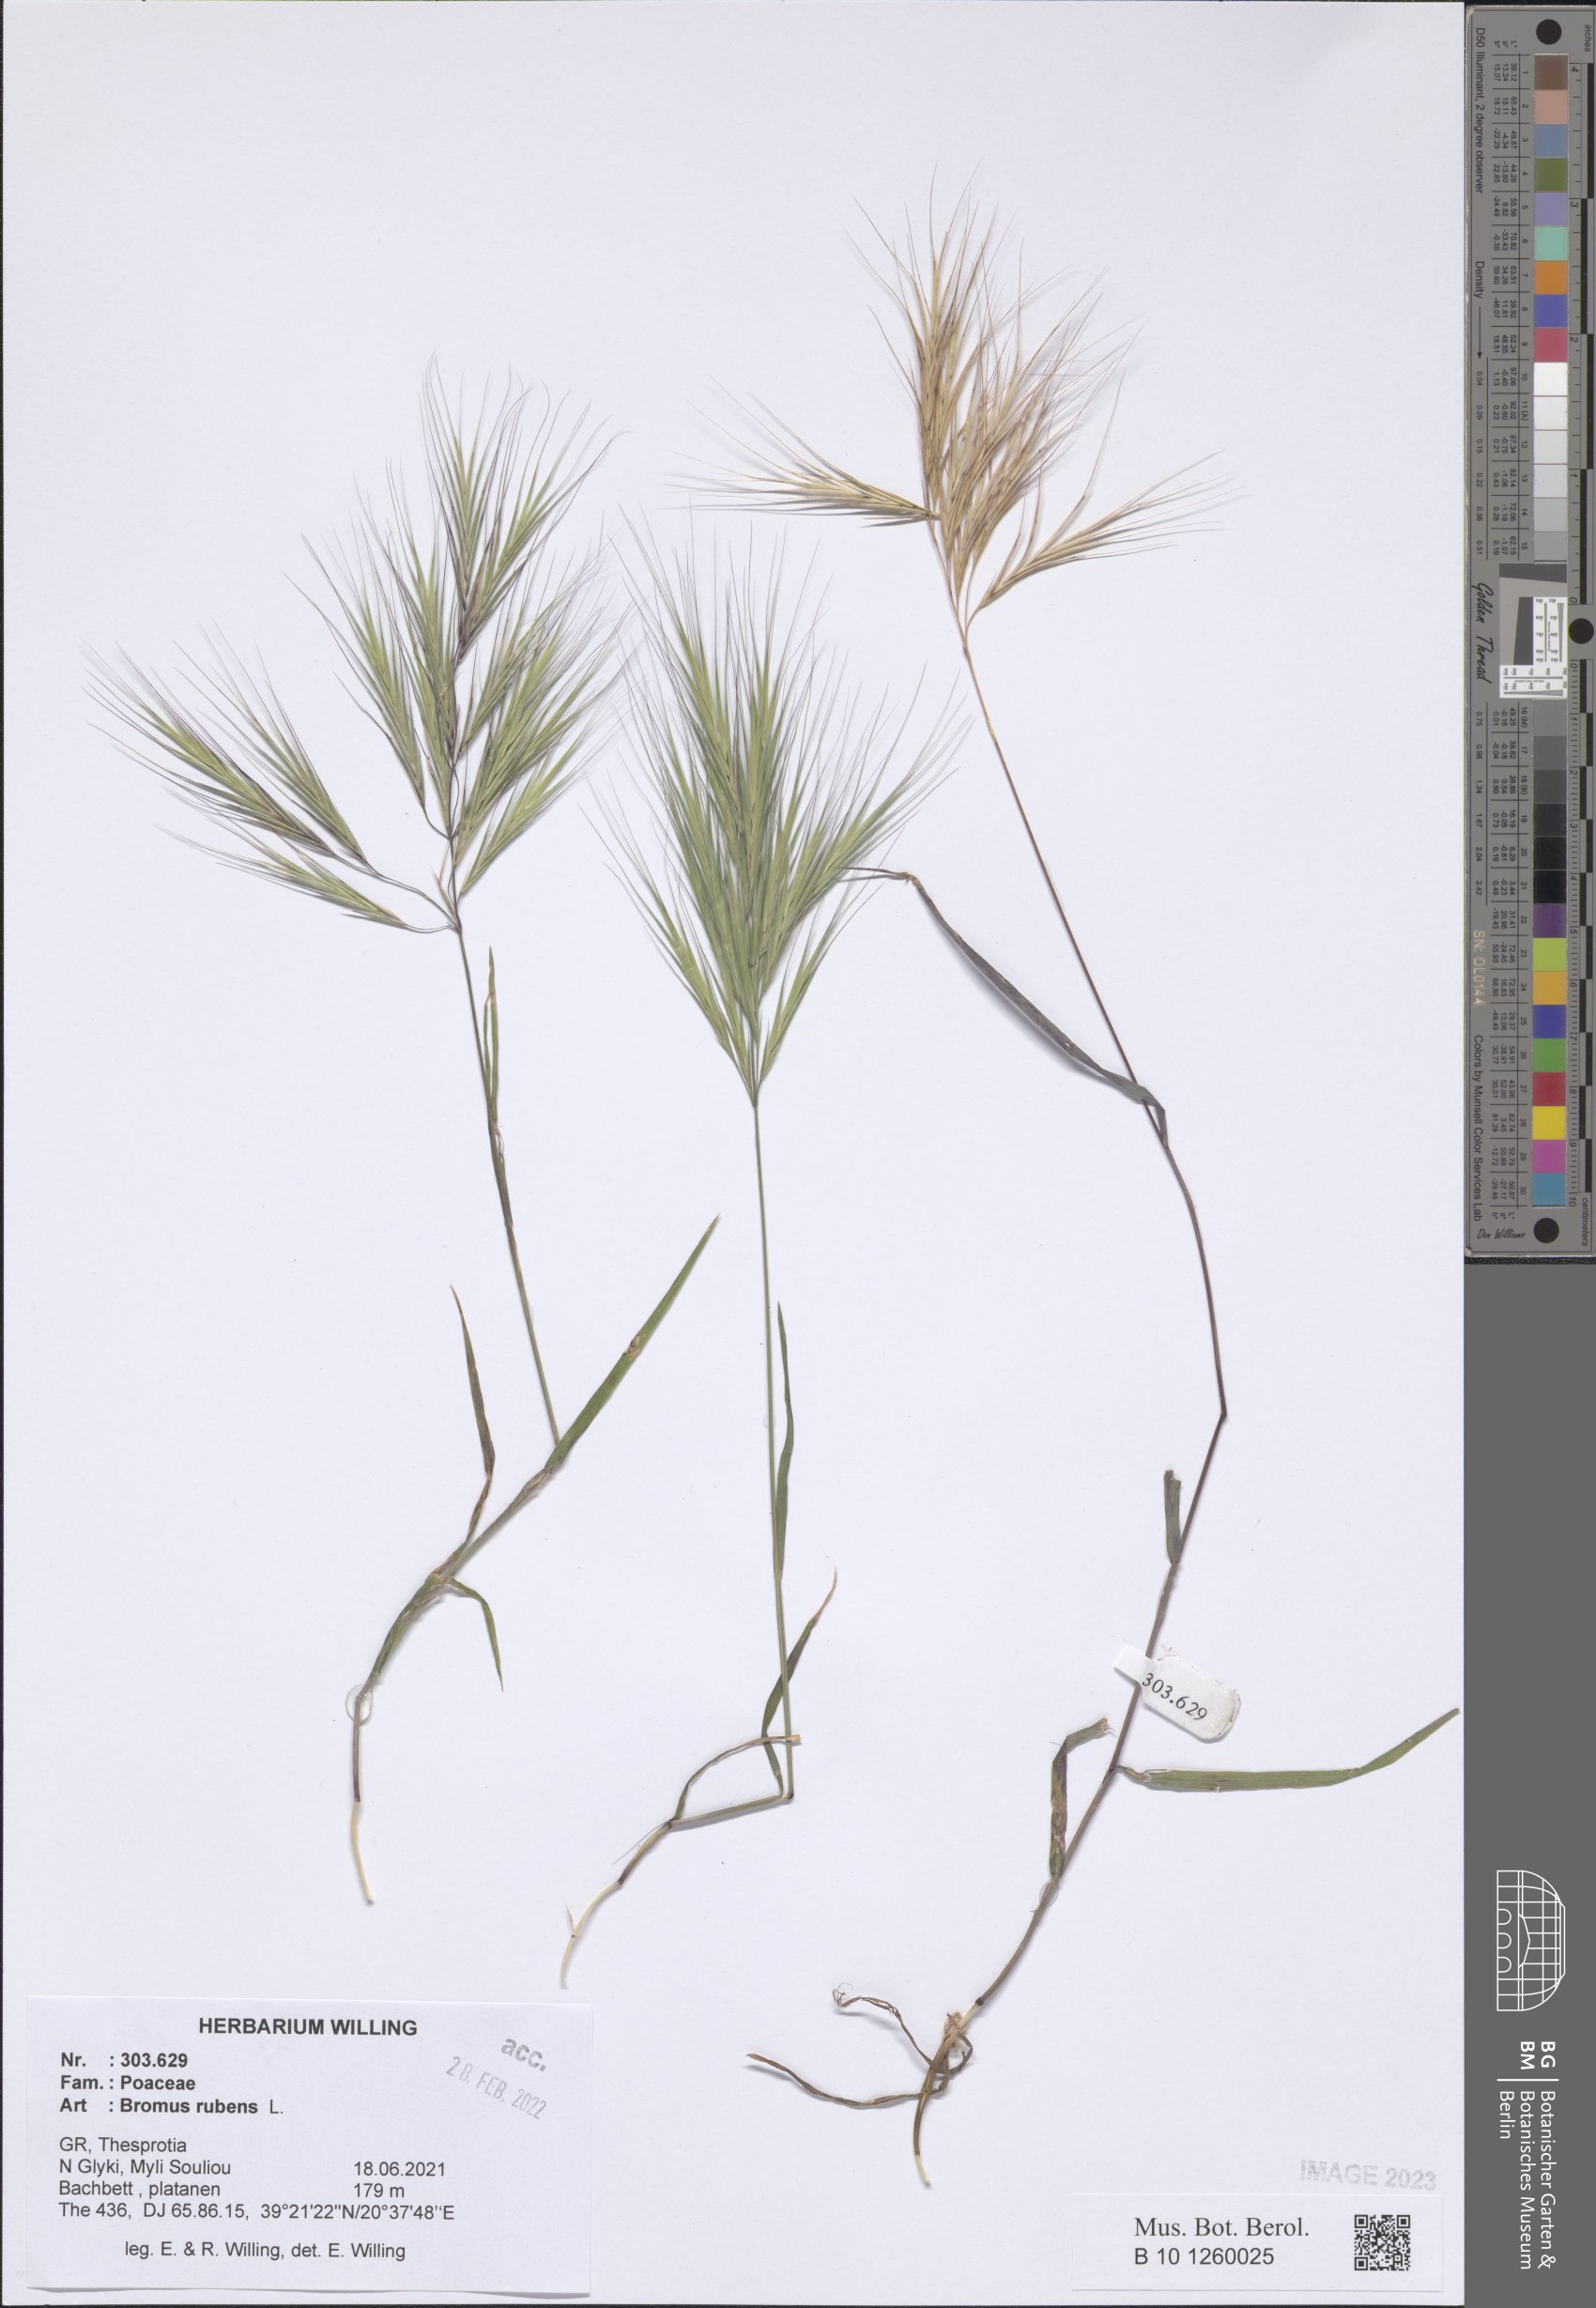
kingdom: Plantae
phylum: Tracheophyta
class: Liliopsida
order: Poales
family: Poaceae
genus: Bromus
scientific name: Bromus rubens
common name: Red brome
